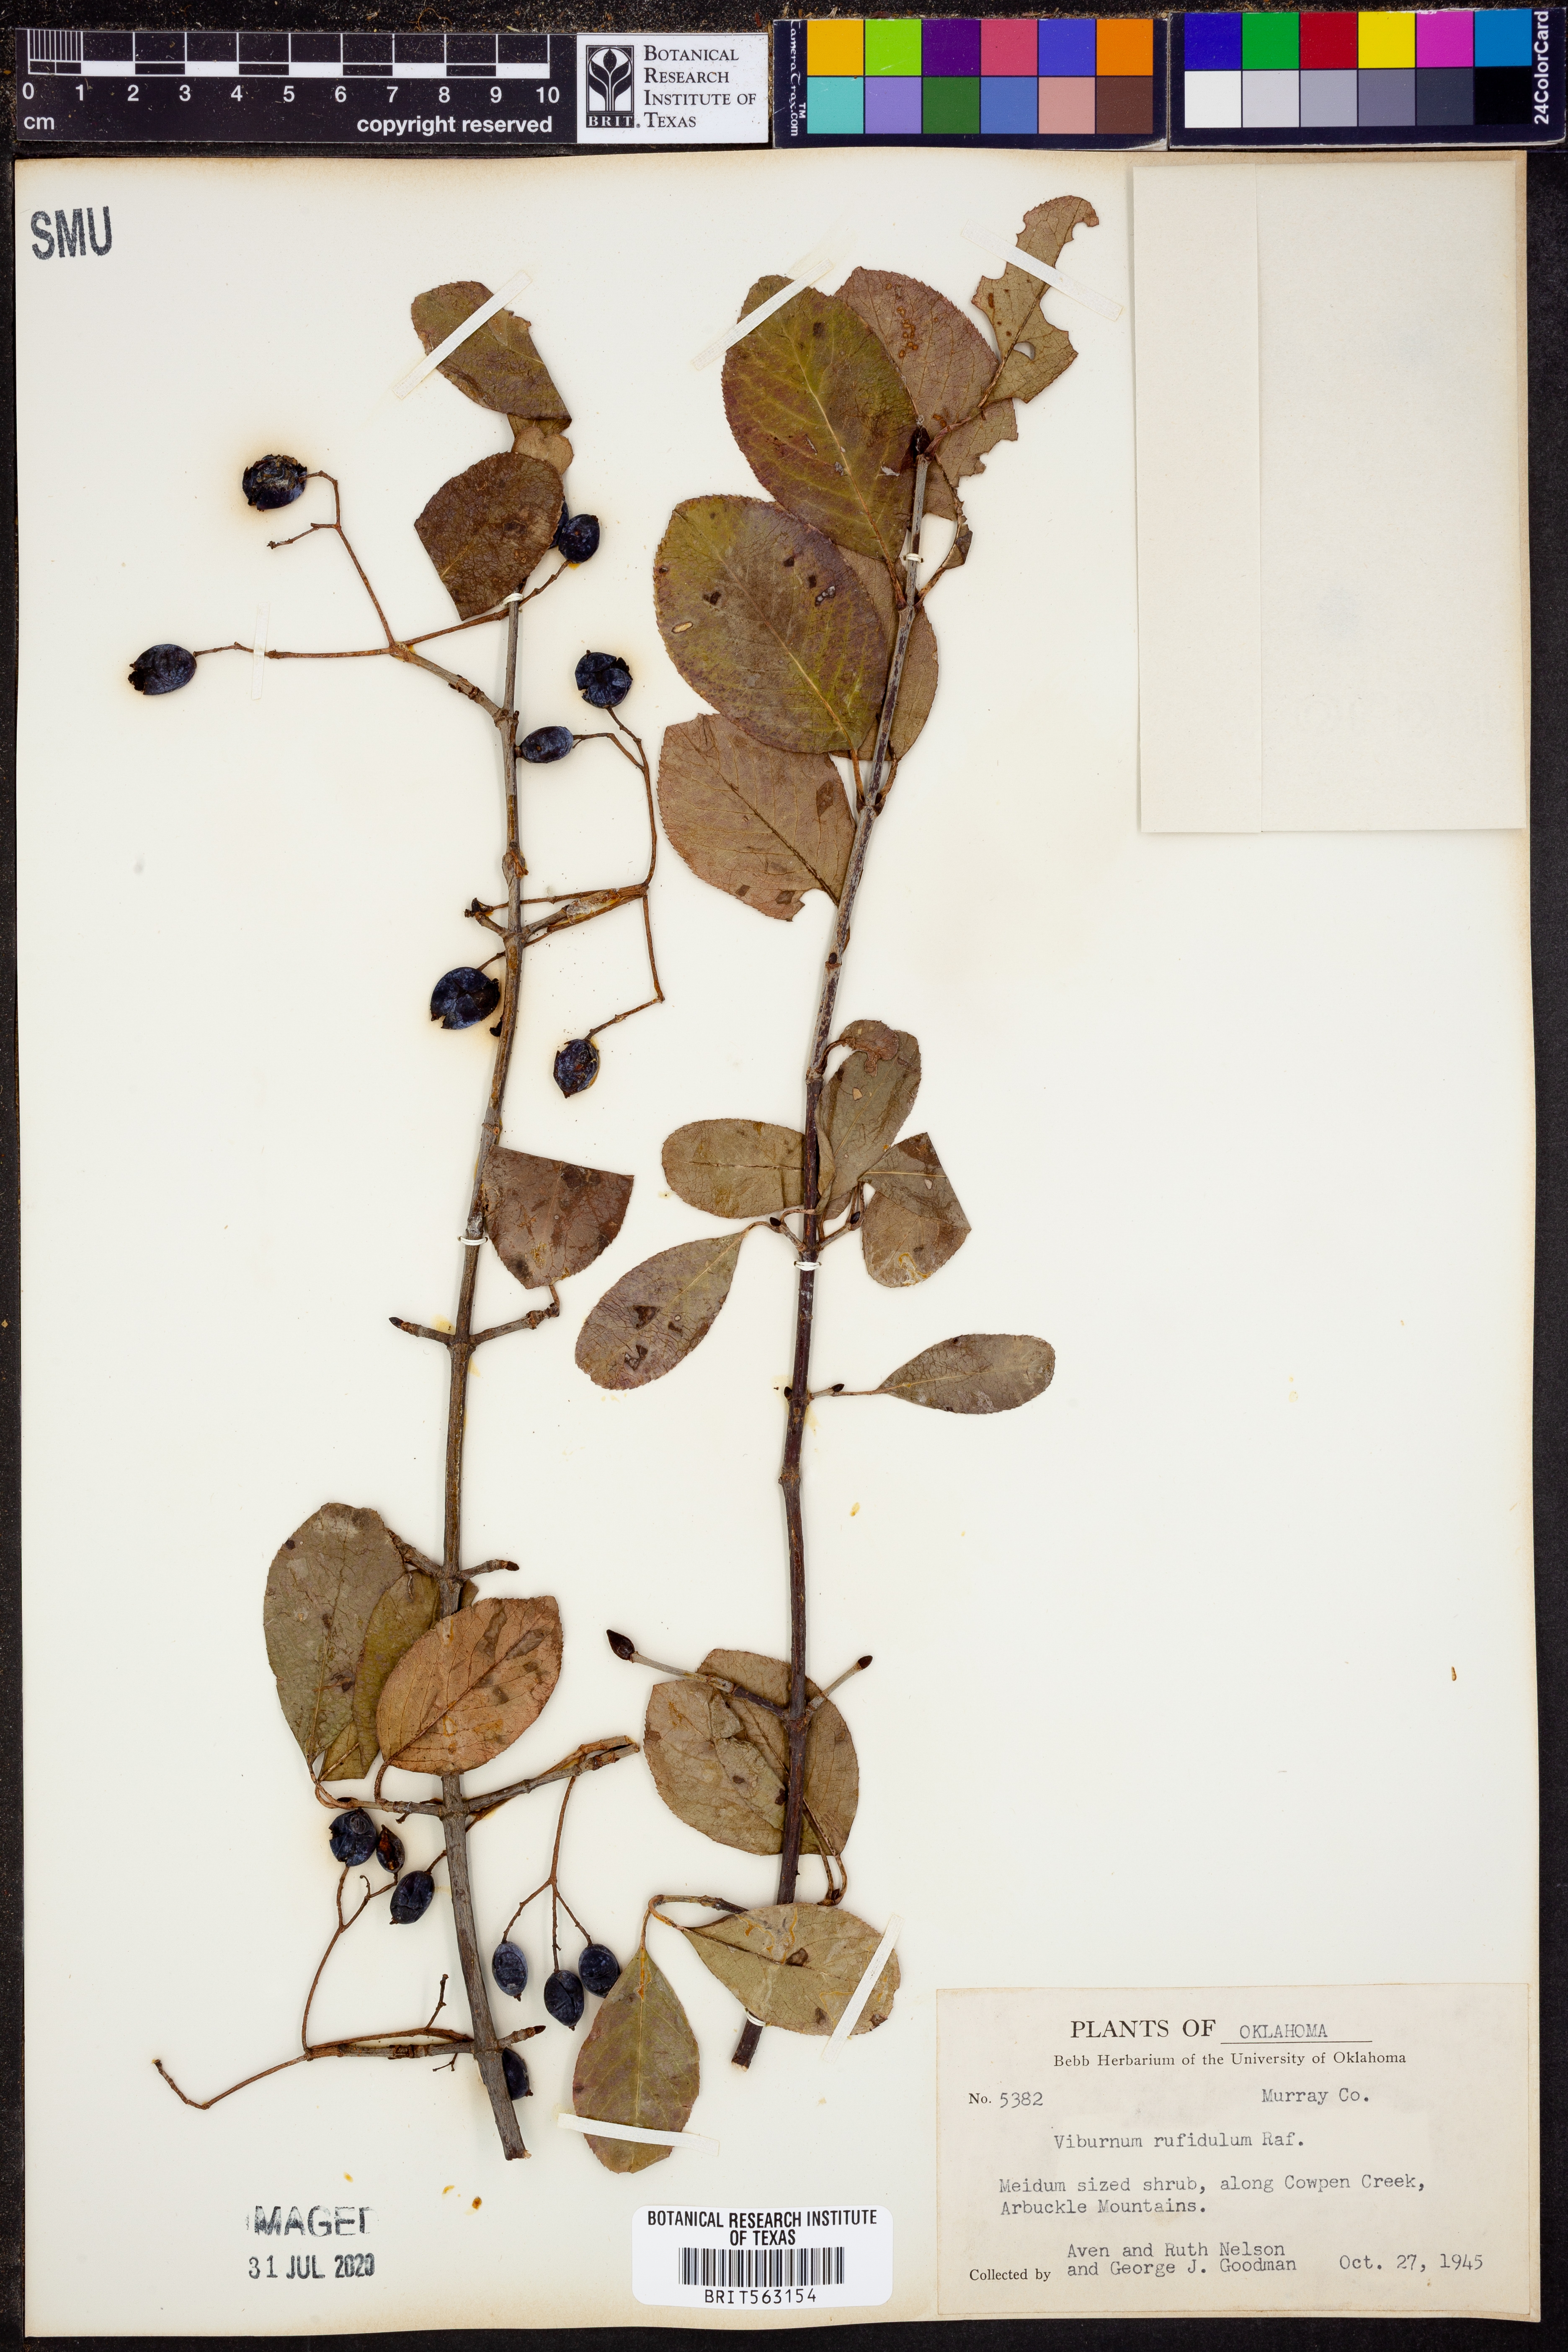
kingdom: Plantae
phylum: Tracheophyta
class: Magnoliopsida
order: Dipsacales
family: Viburnaceae
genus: Viburnum
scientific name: Viburnum rufidulum
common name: Blue haw
